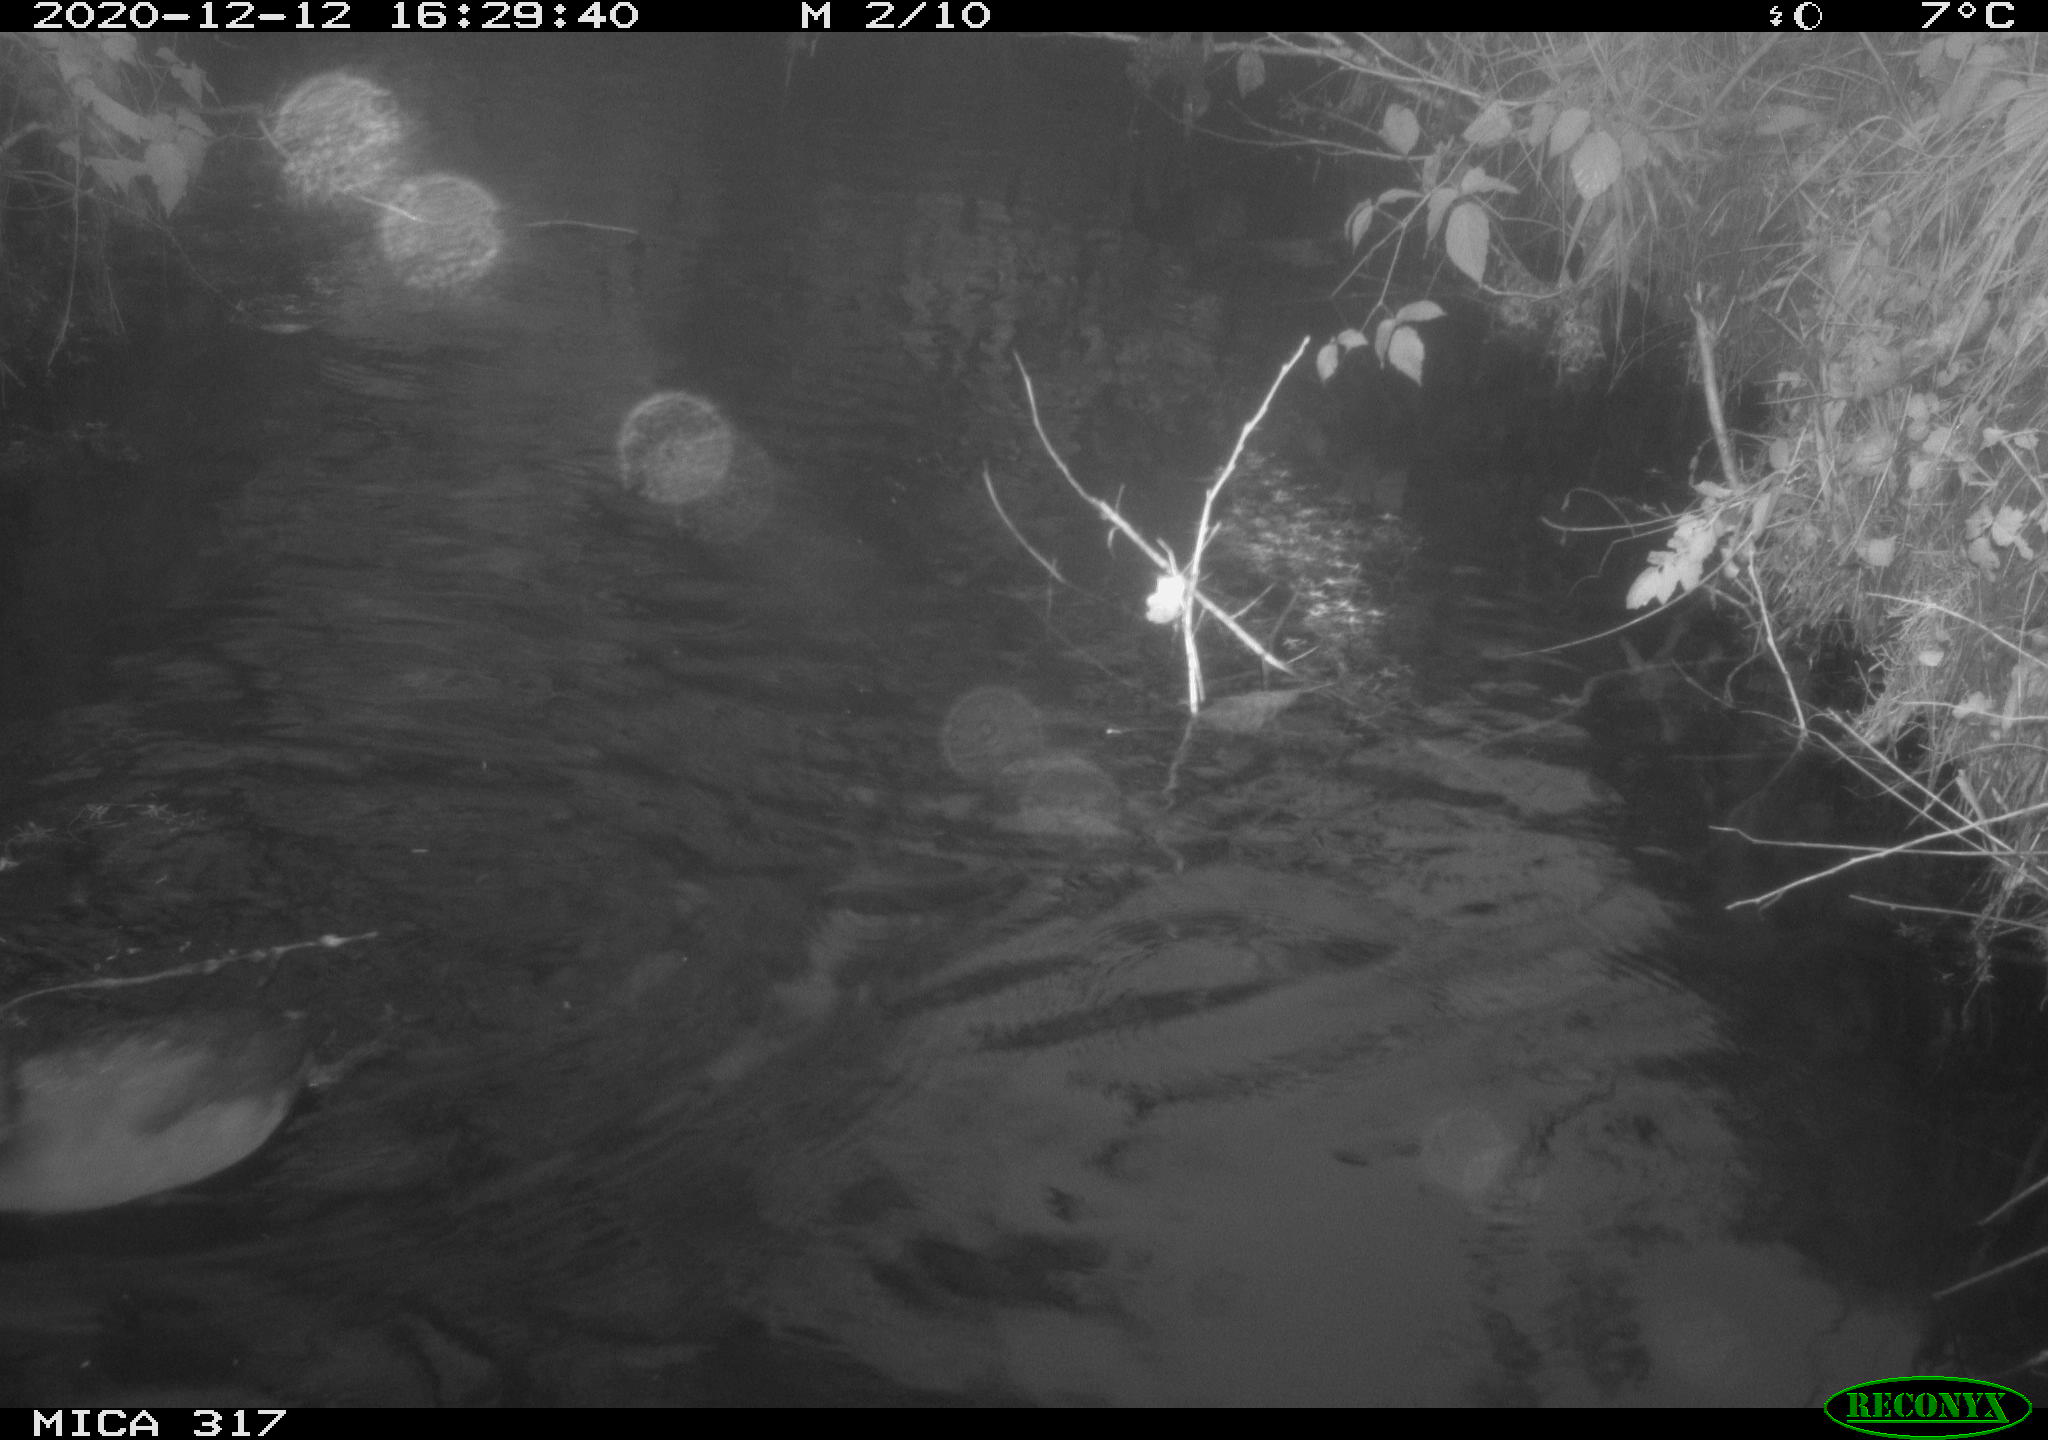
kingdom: Animalia
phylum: Chordata
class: Aves
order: Gruiformes
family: Rallidae
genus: Fulica
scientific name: Fulica atra
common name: Eurasian coot
